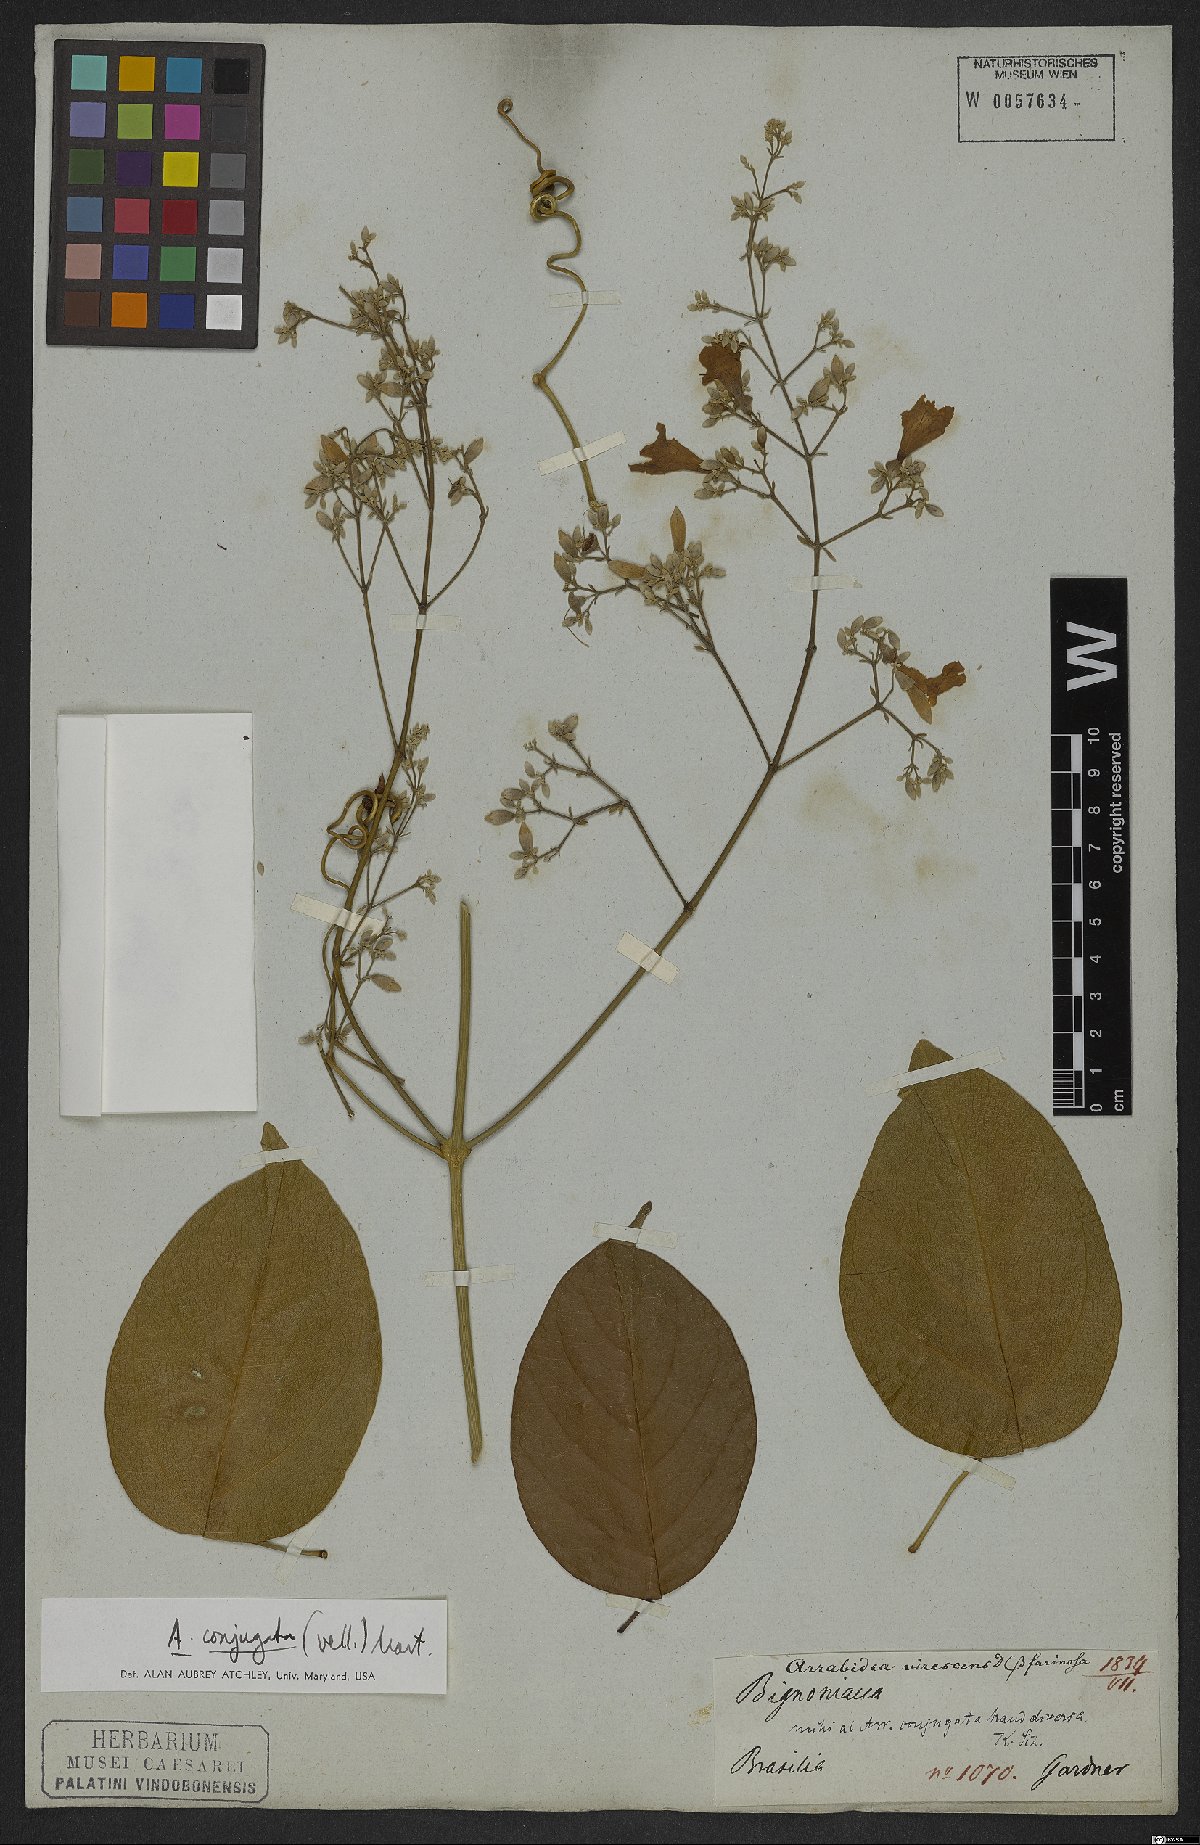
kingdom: Plantae
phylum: Tracheophyta
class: Magnoliopsida
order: Lamiales
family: Bignoniaceae
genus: Fridericia
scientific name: Fridericia conjugata
